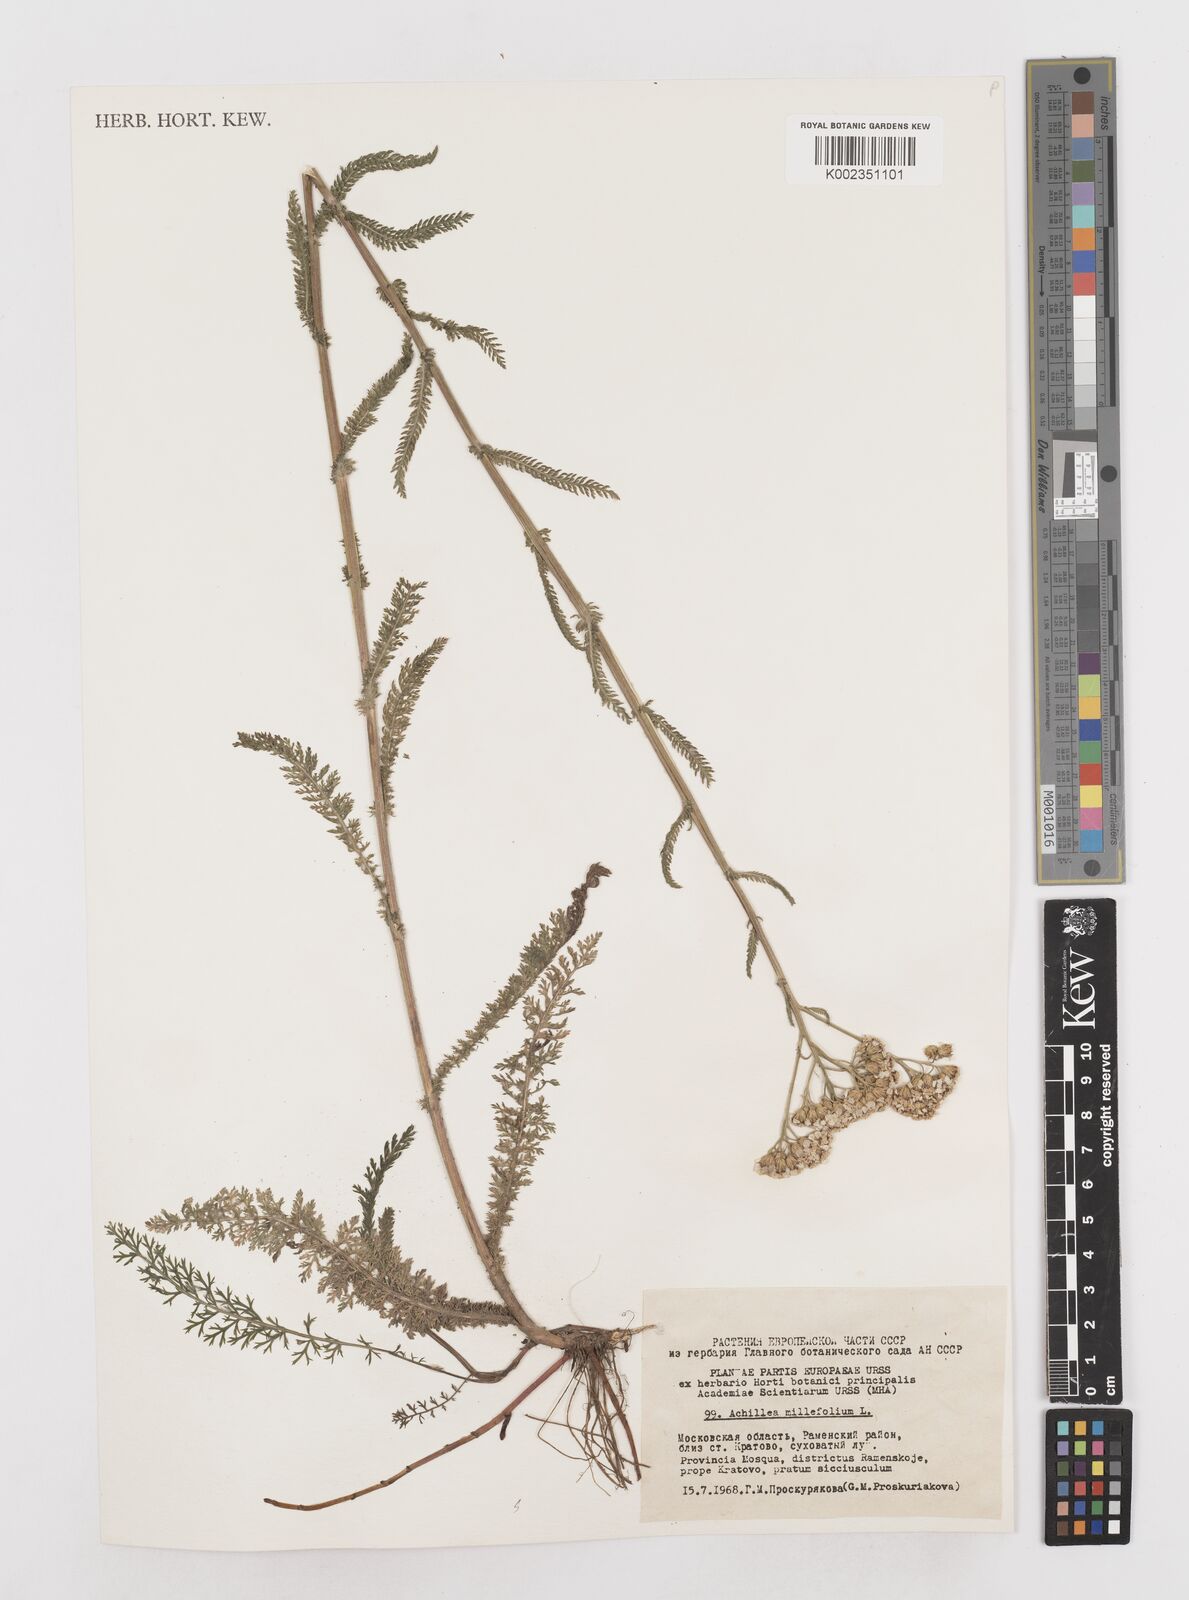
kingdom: Plantae
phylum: Tracheophyta
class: Magnoliopsida
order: Asterales
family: Asteraceae
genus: Achillea
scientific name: Achillea millefolium
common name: Yarrow
